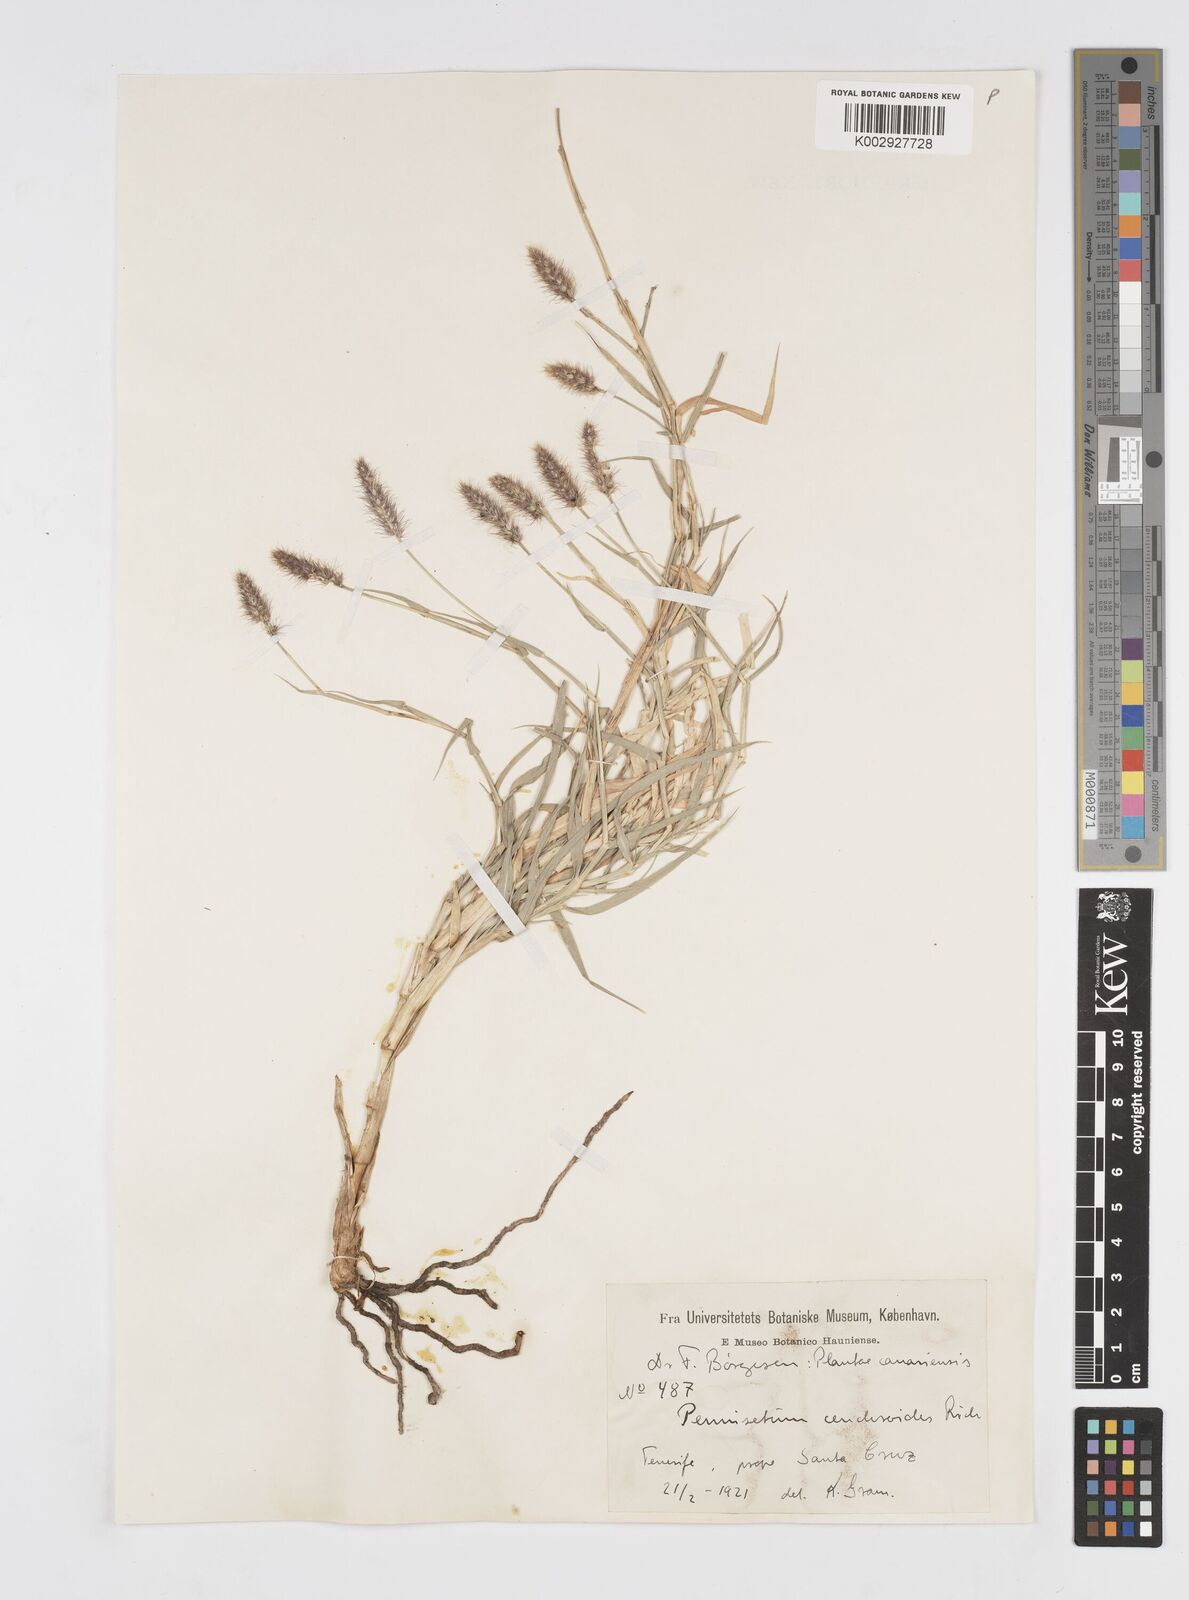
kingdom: Plantae
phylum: Tracheophyta
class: Liliopsida
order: Poales
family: Poaceae
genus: Cenchrus
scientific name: Cenchrus ciliaris
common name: Buffelgrass
